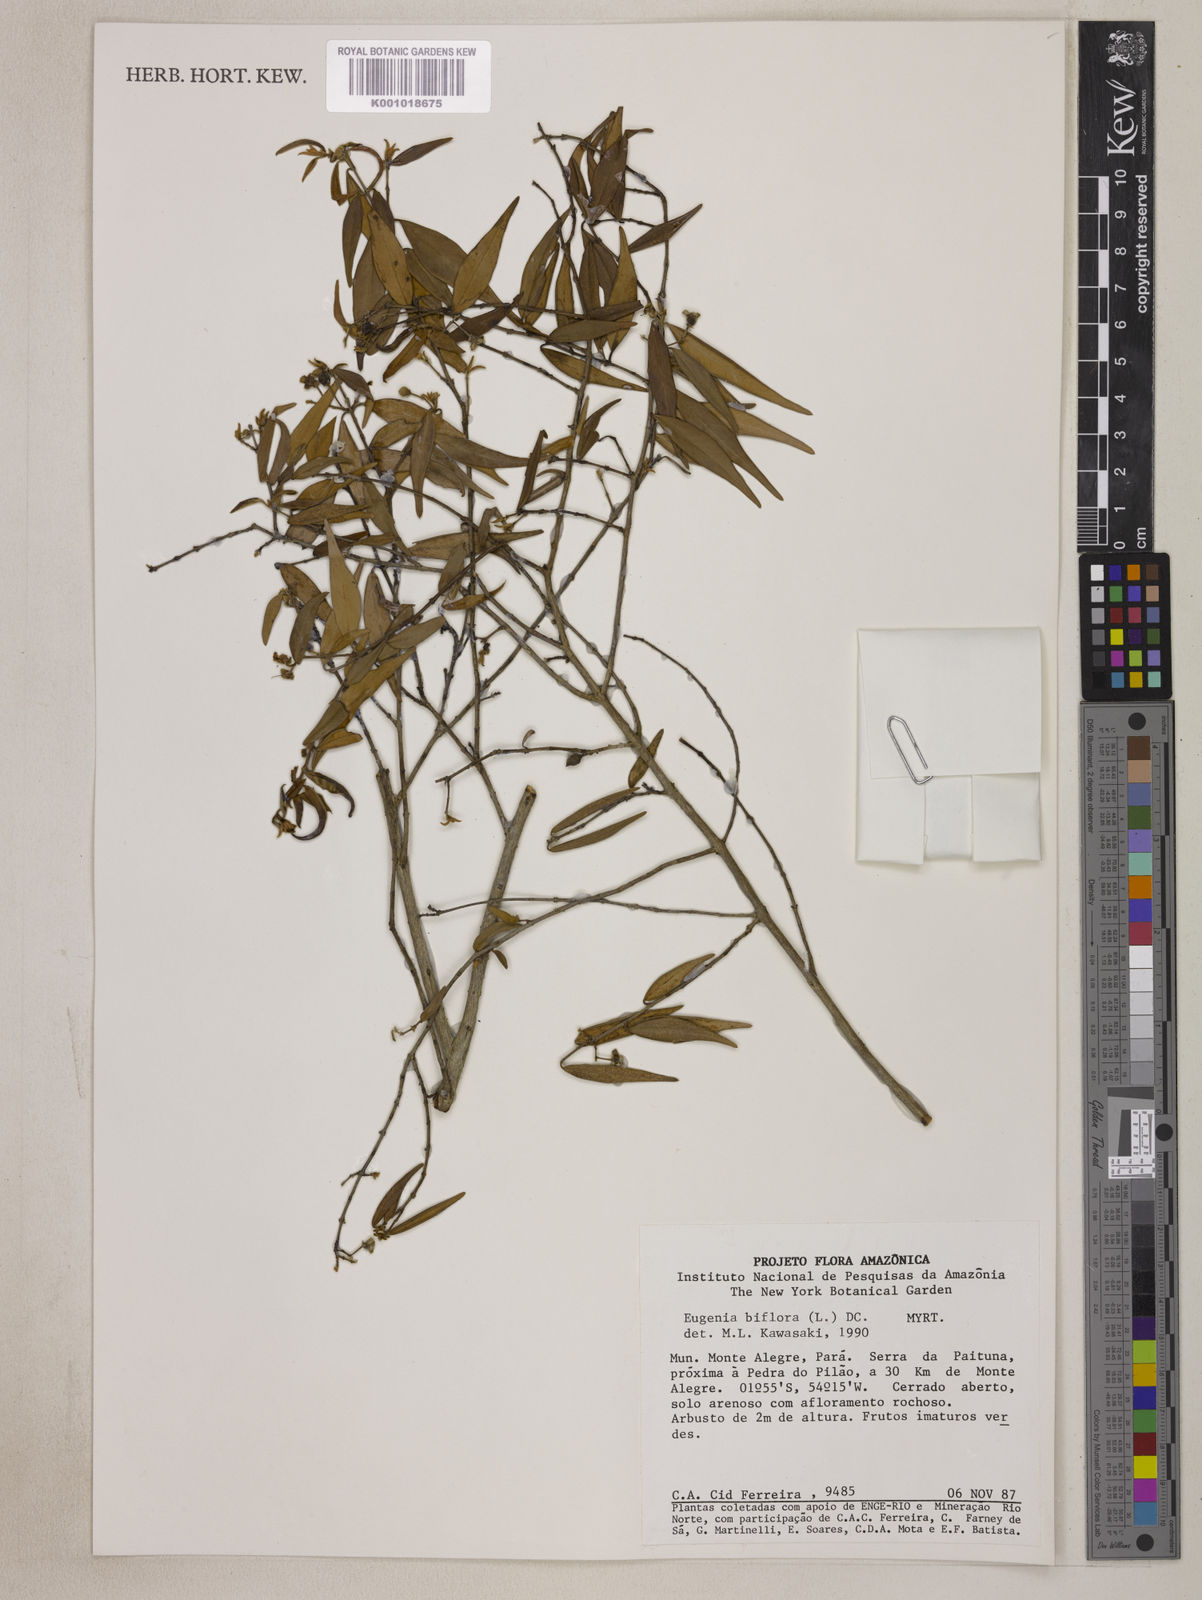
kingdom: Plantae
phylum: Tracheophyta
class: Magnoliopsida
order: Myrtales
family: Myrtaceae
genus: Eugenia
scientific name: Eugenia biflora
